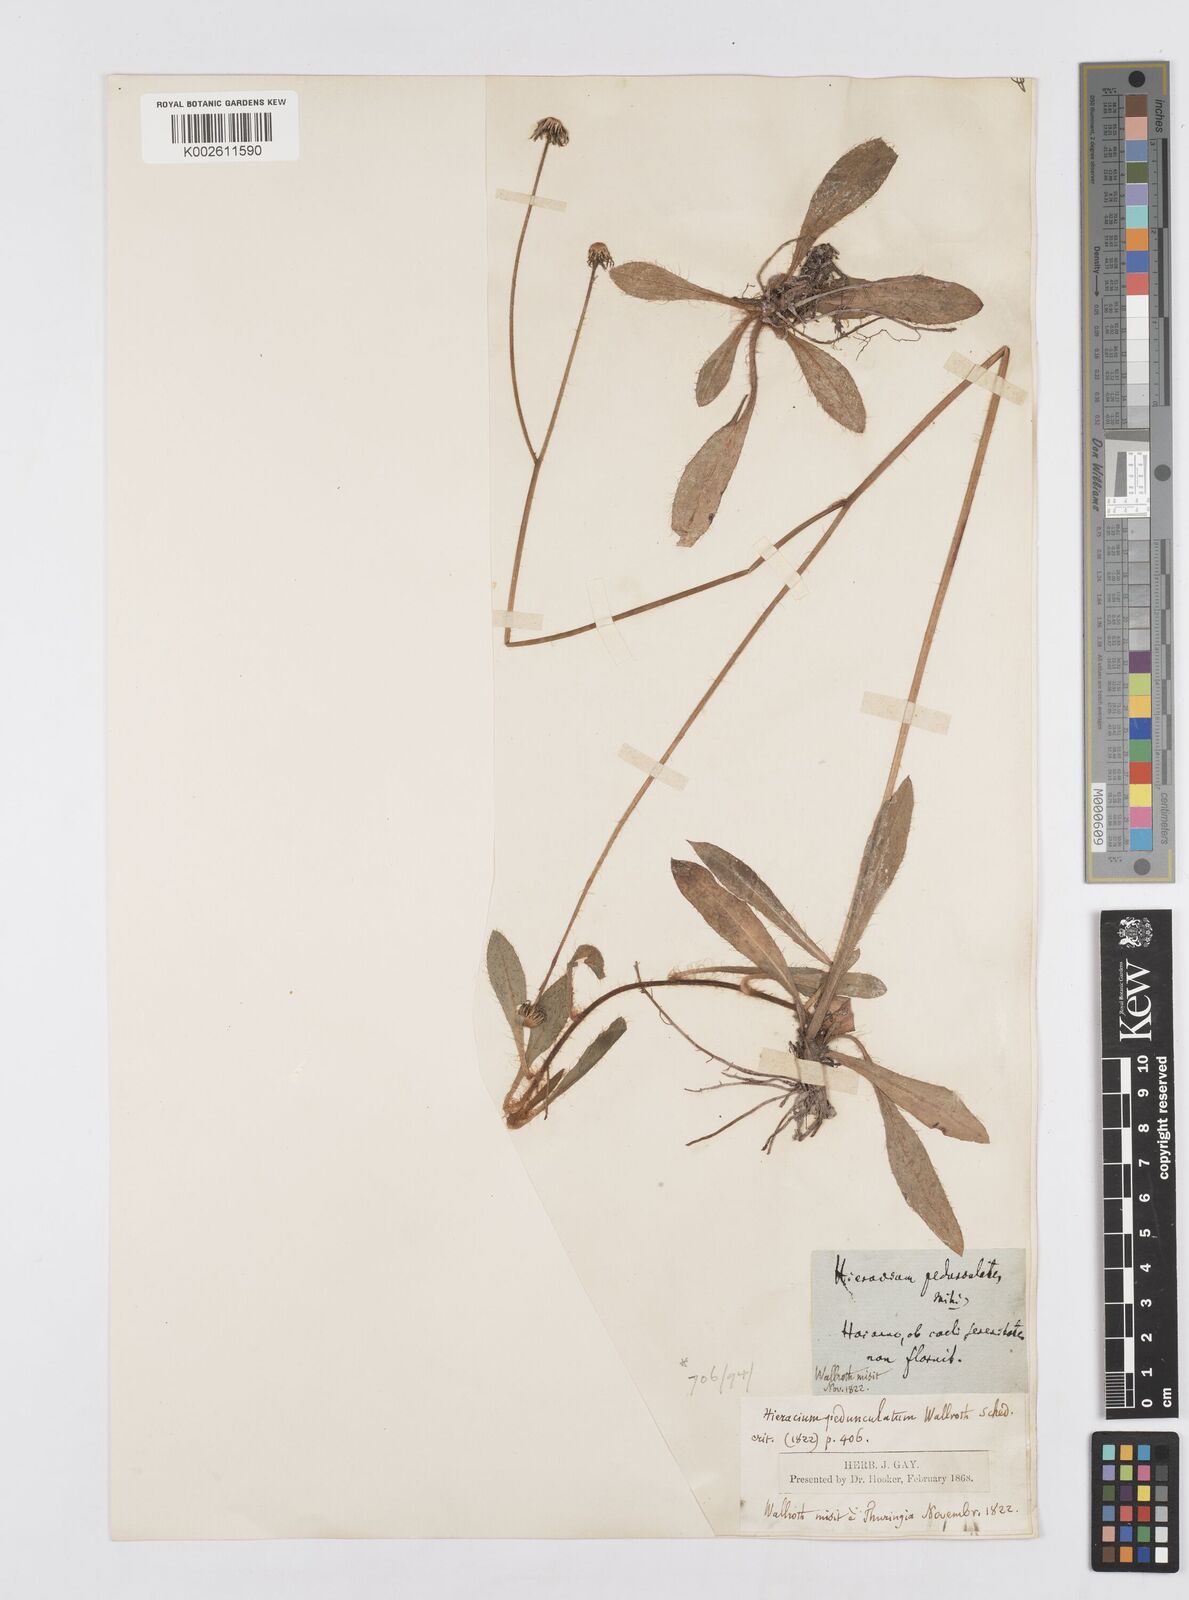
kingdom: Plantae
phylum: Tracheophyta
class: Magnoliopsida
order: Asterales
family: Asteraceae
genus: Pilosella
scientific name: Pilosella acutifolia
